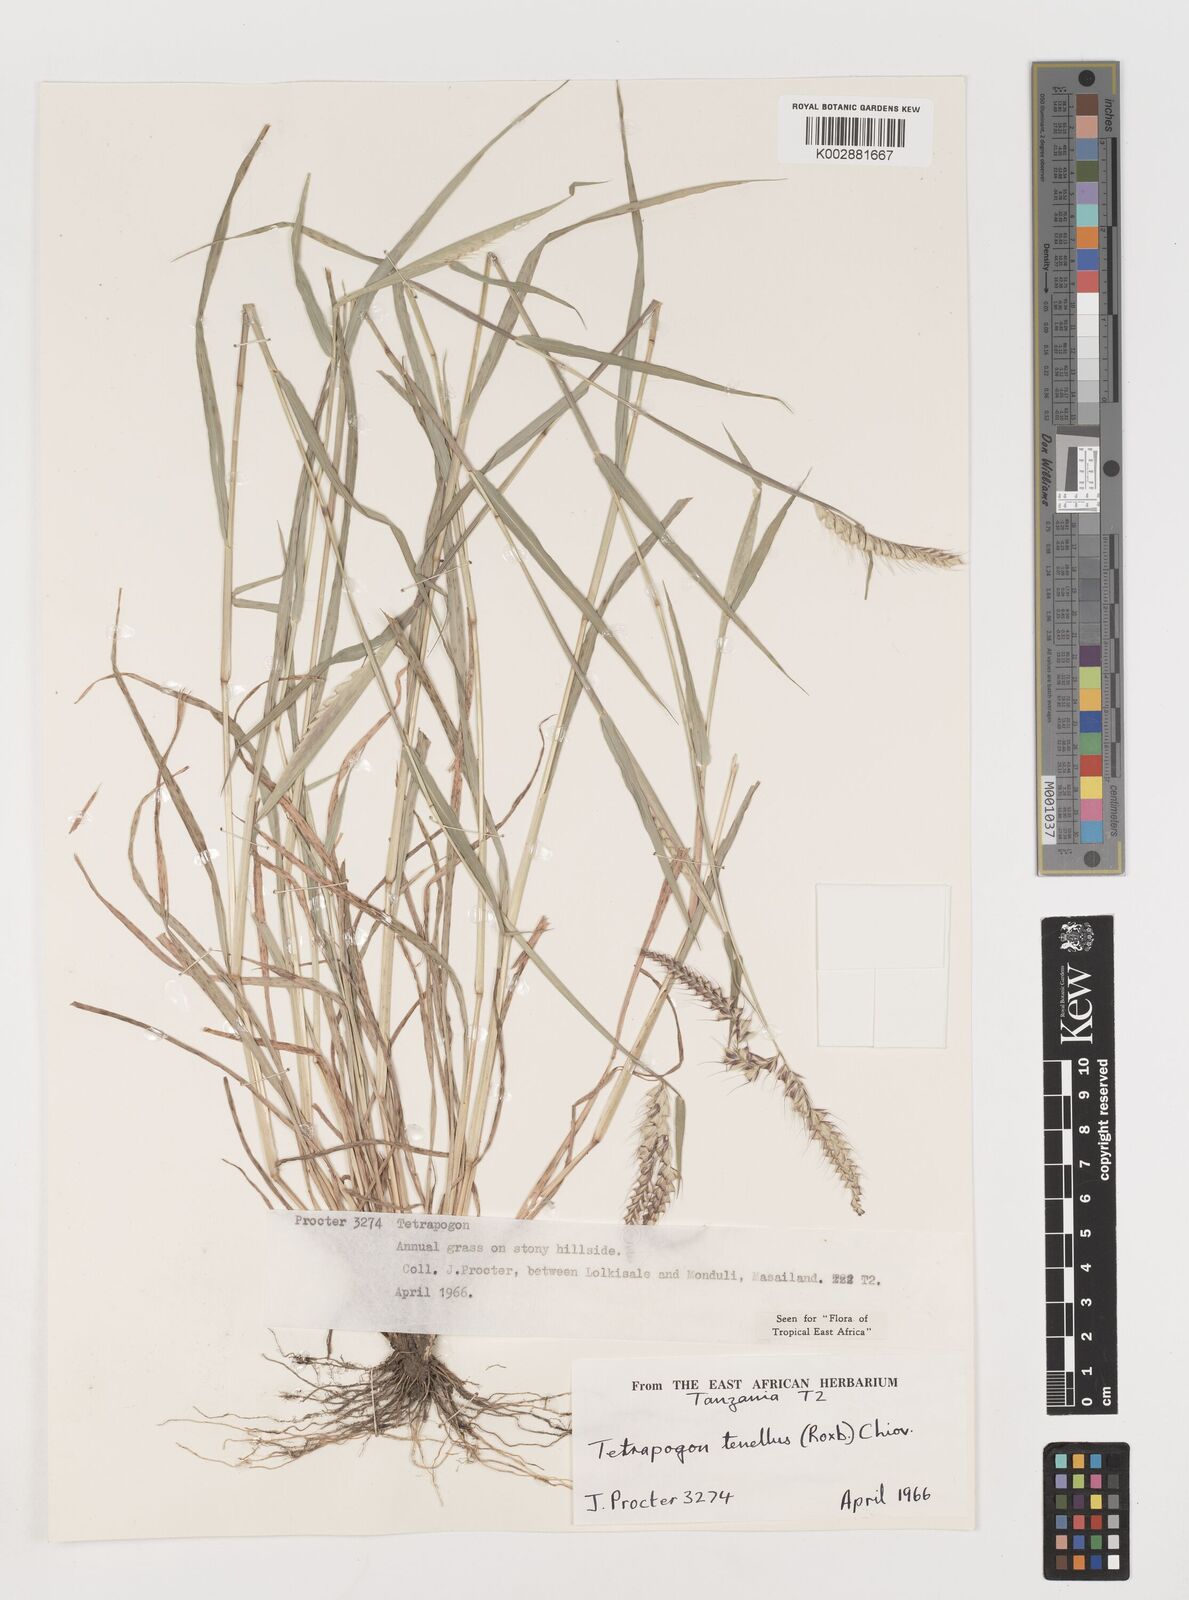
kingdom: Plantae
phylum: Tracheophyta
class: Liliopsida
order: Poales
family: Poaceae
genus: Tetrapogon
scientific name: Tetrapogon tenellus
